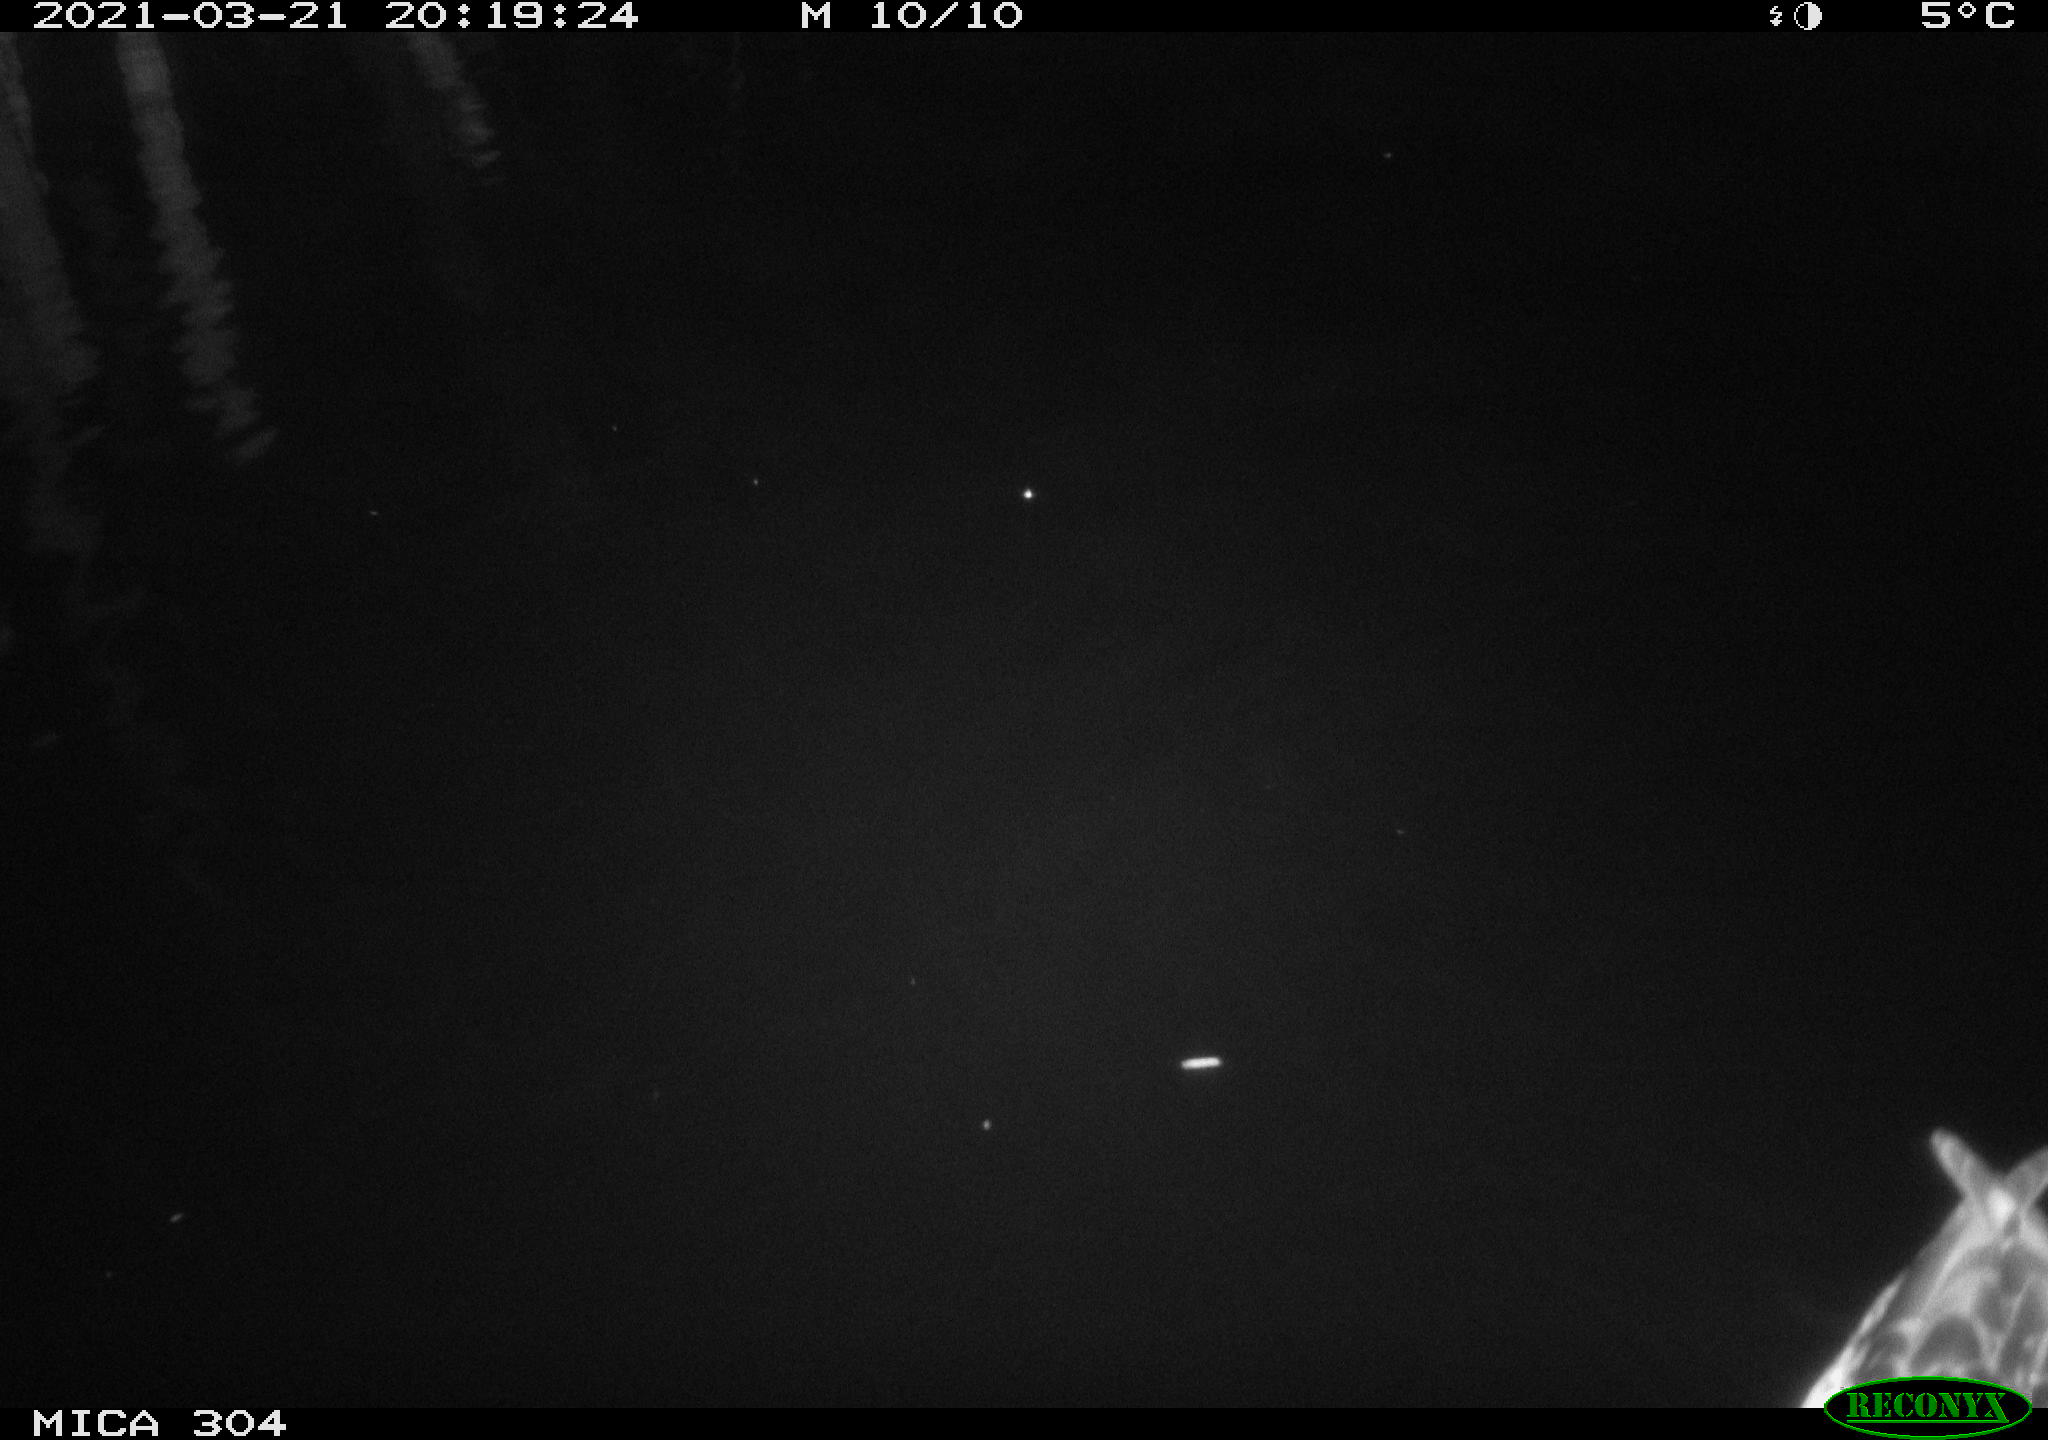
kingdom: Animalia
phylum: Chordata
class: Aves
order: Anseriformes
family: Anatidae
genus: Anas
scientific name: Anas platyrhynchos
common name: Mallard
